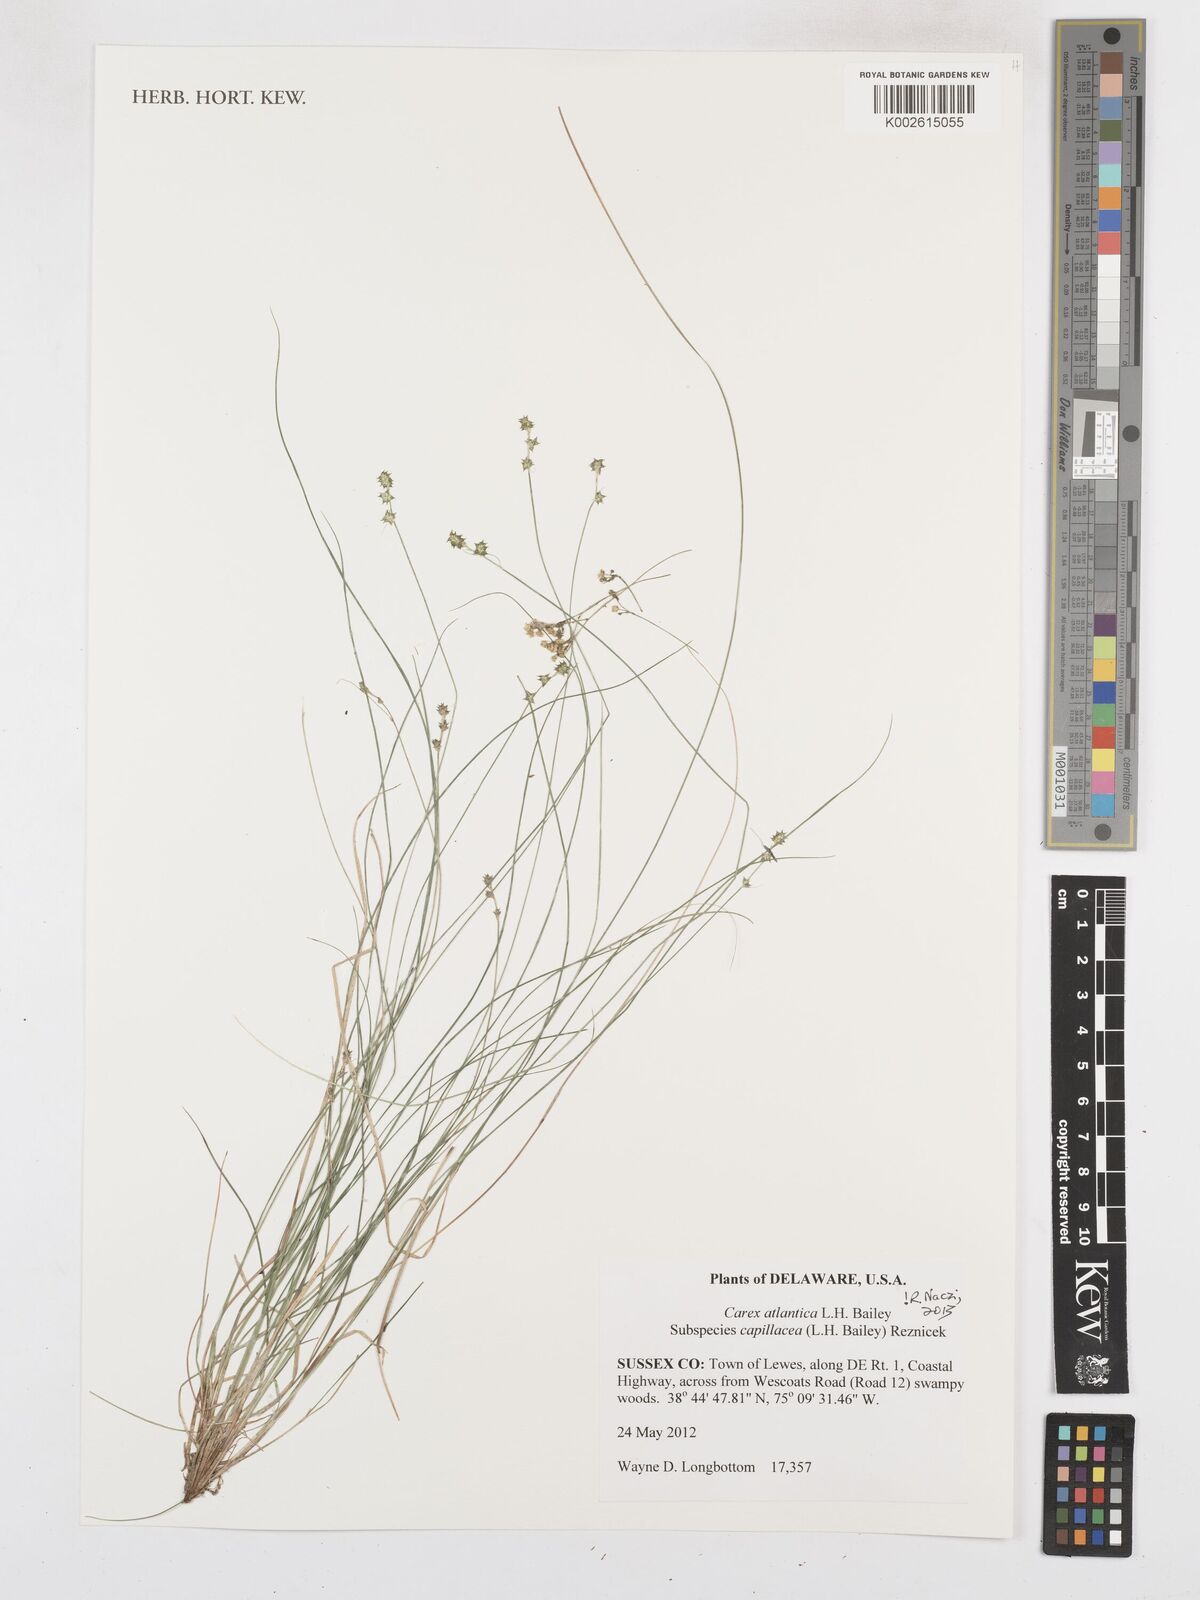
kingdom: Plantae
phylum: Tracheophyta
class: Liliopsida
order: Poales
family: Cyperaceae
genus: Carex
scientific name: Carex atlantica
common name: Atlantic sedge
